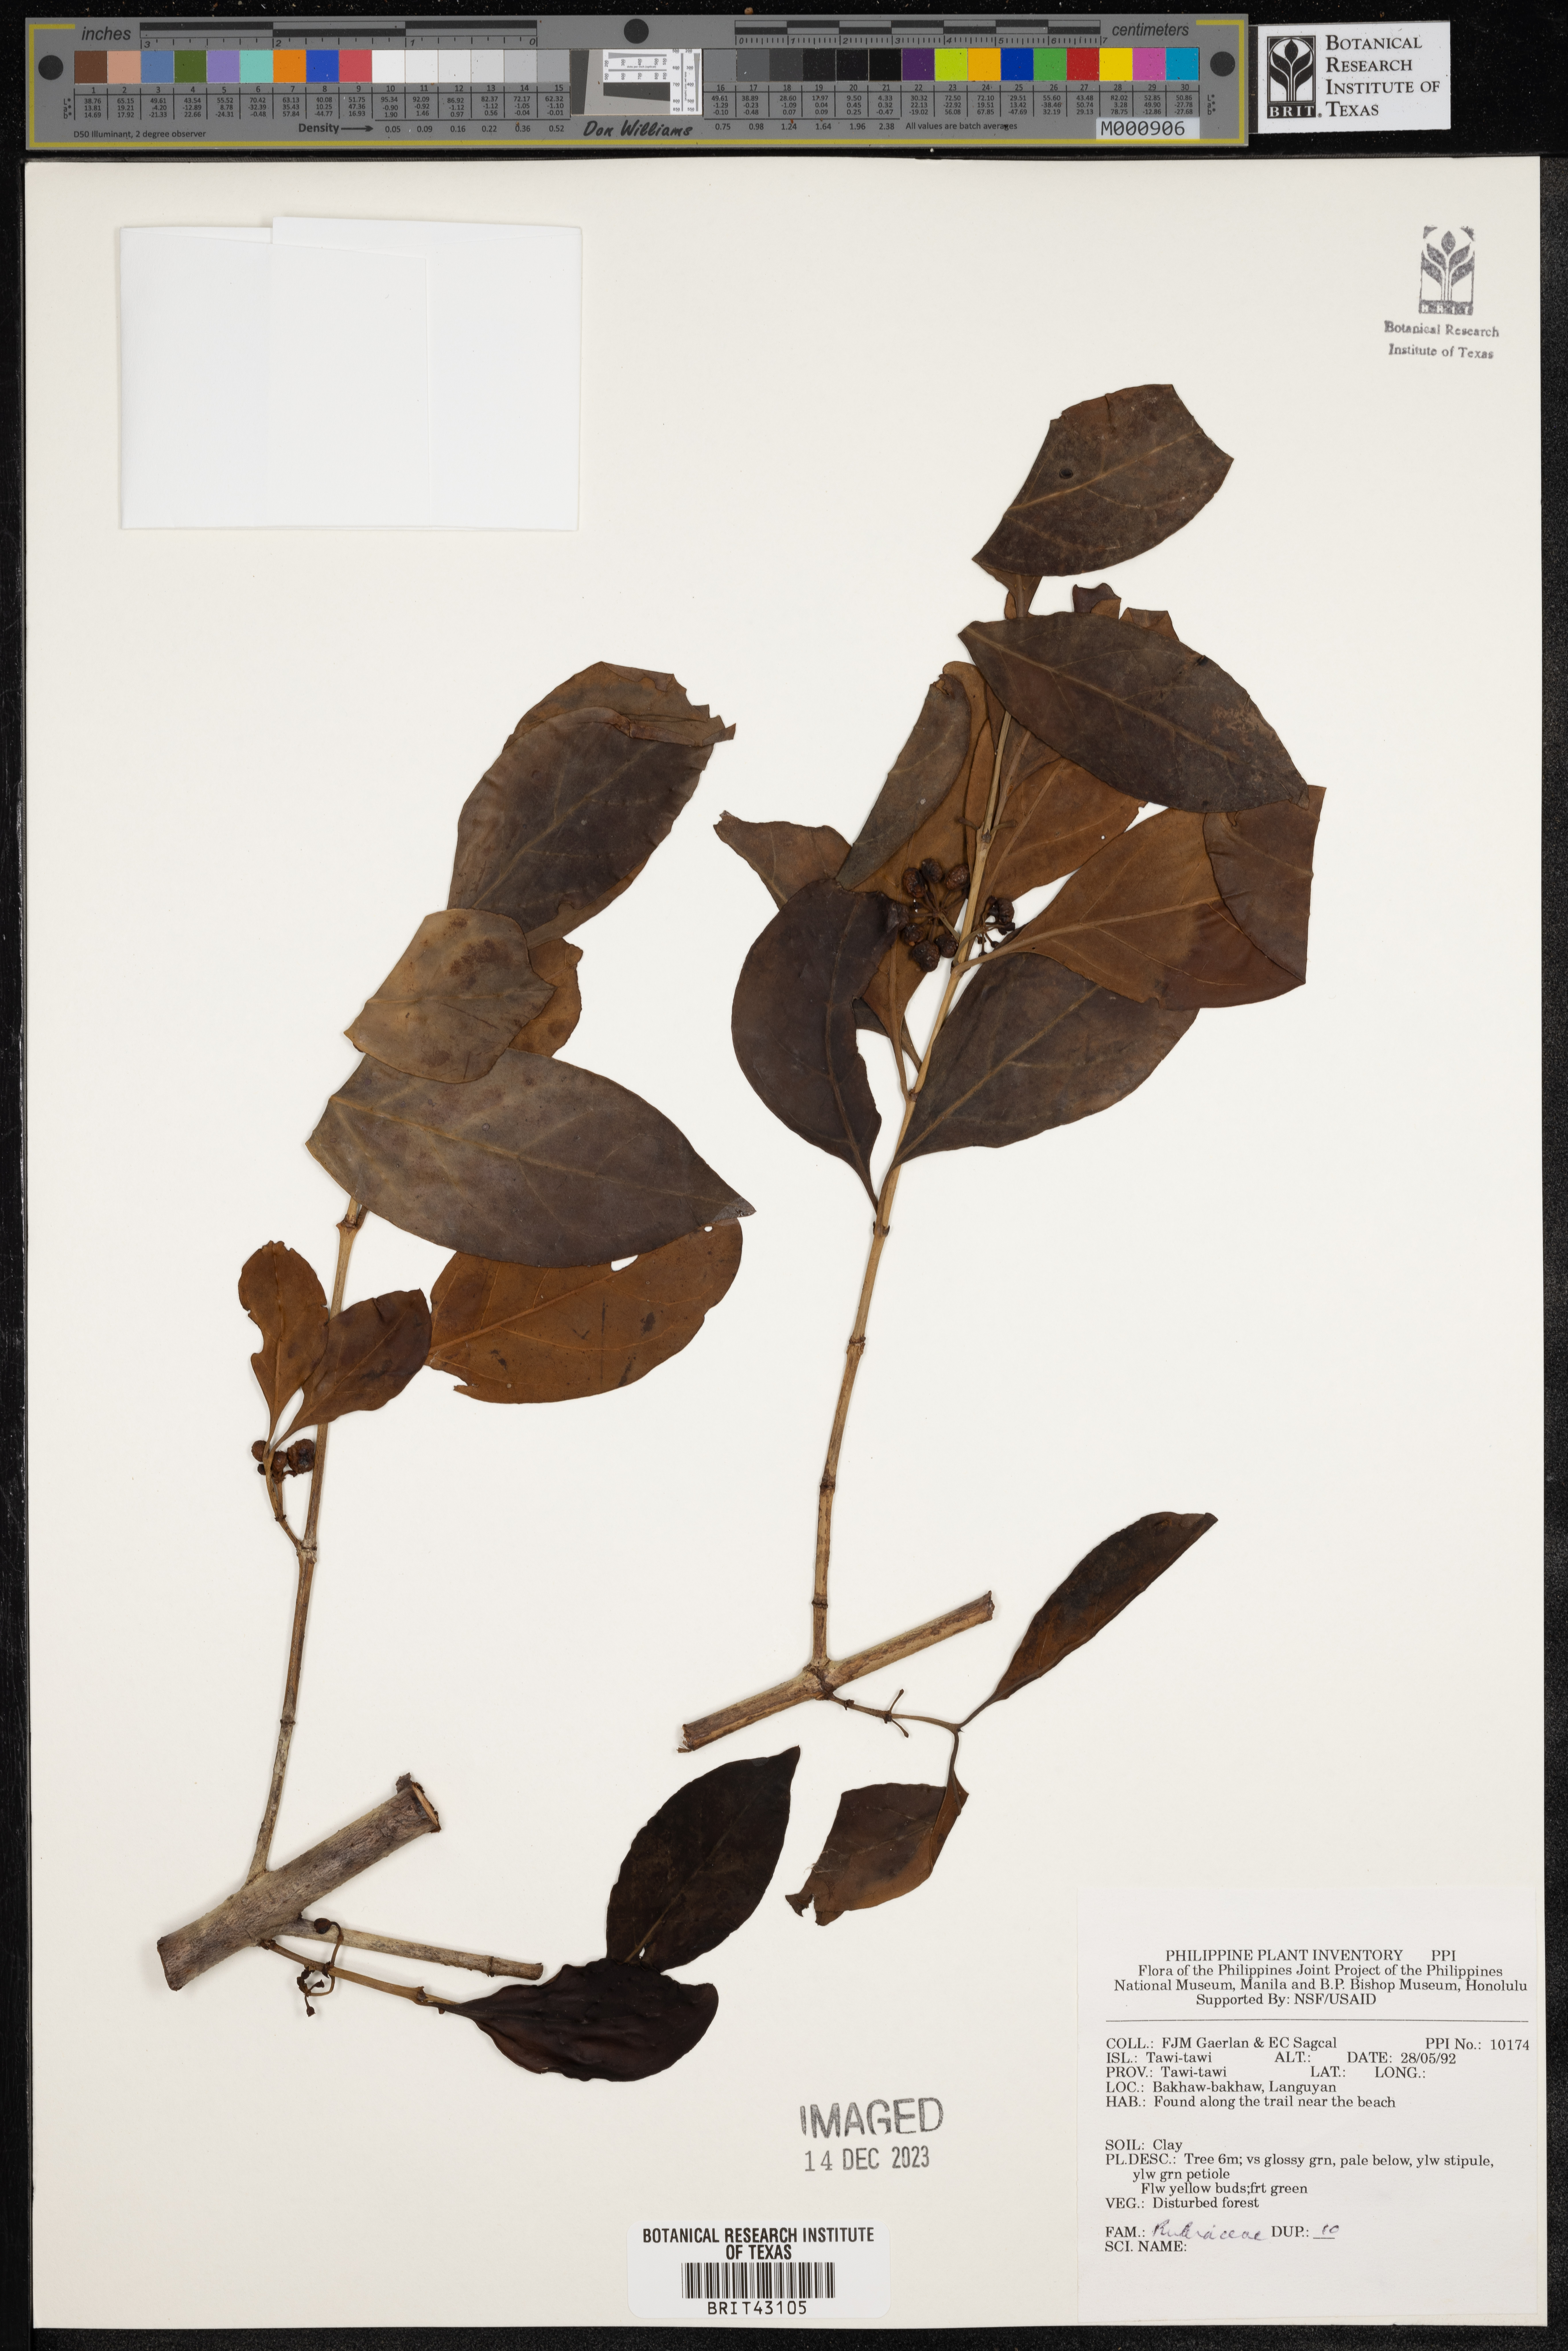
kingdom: Plantae
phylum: Tracheophyta
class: Magnoliopsida
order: Gentianales
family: Rubiaceae
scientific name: Rubiaceae
